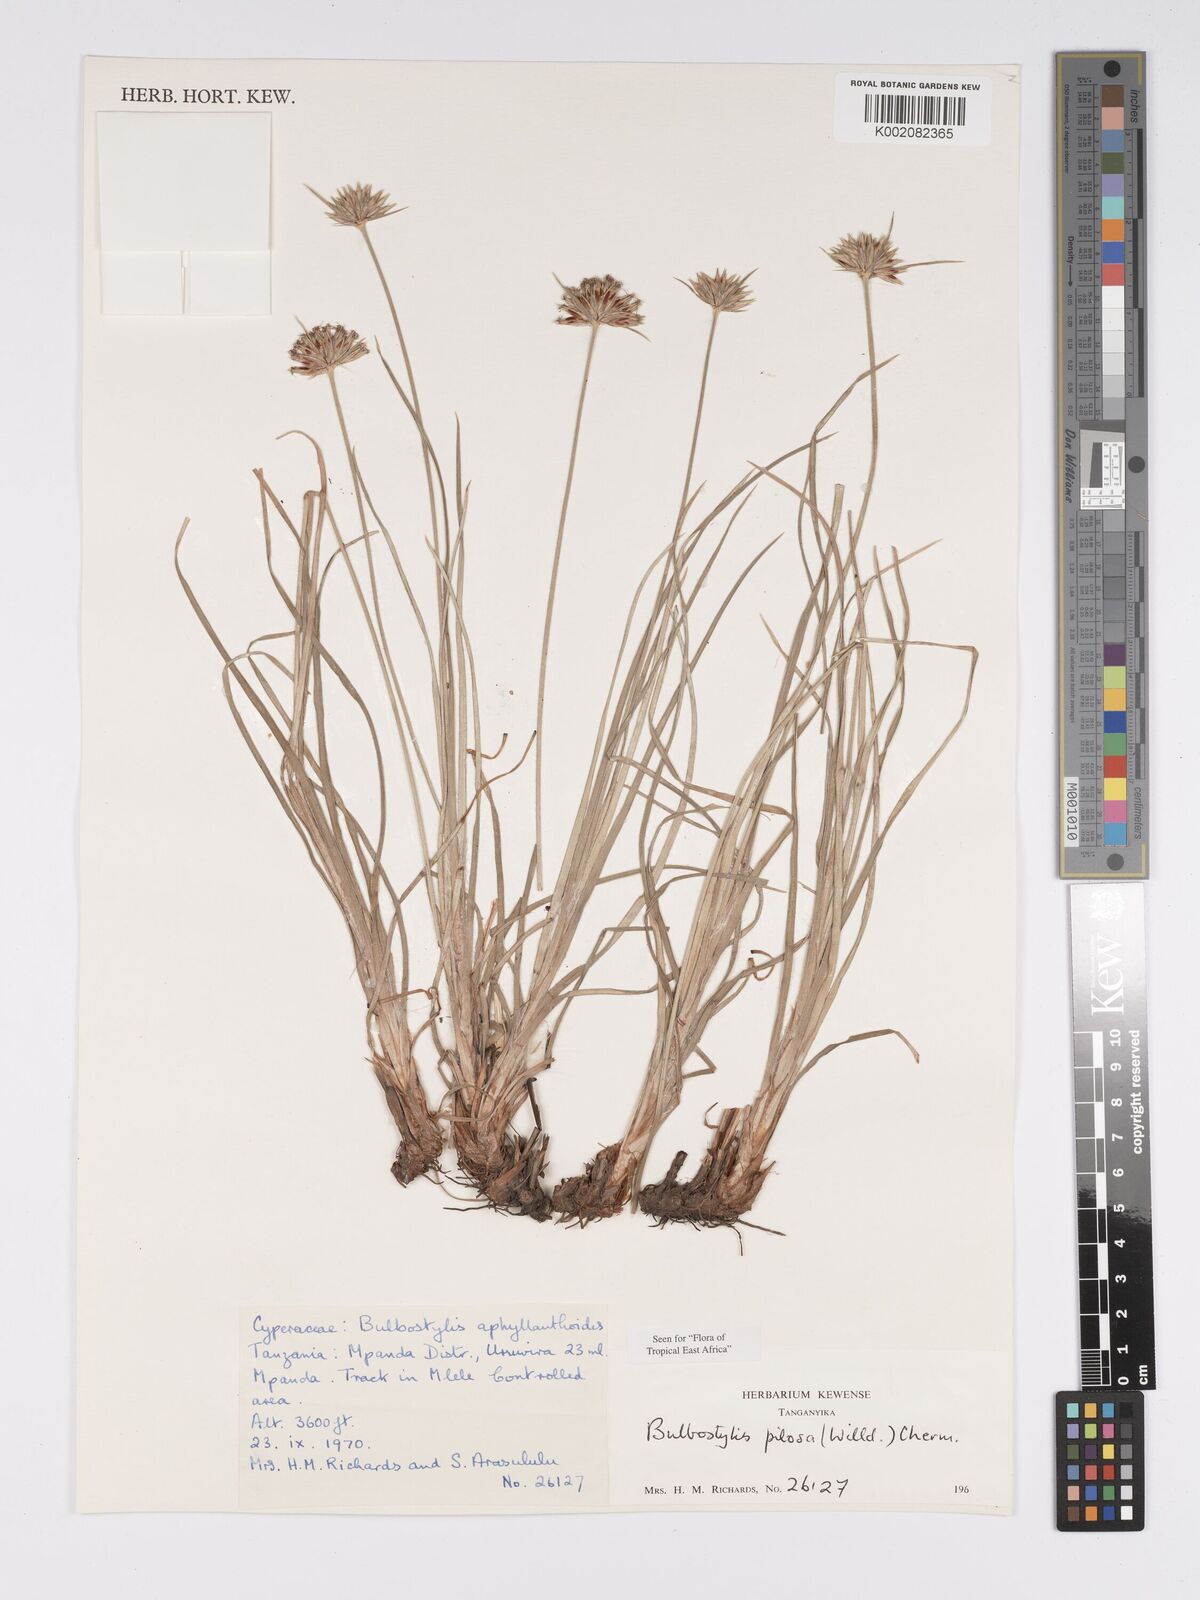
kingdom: Plantae
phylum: Tracheophyta
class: Liliopsida
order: Poales
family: Cyperaceae
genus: Bulbostylis
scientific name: Bulbostylis pilosa
